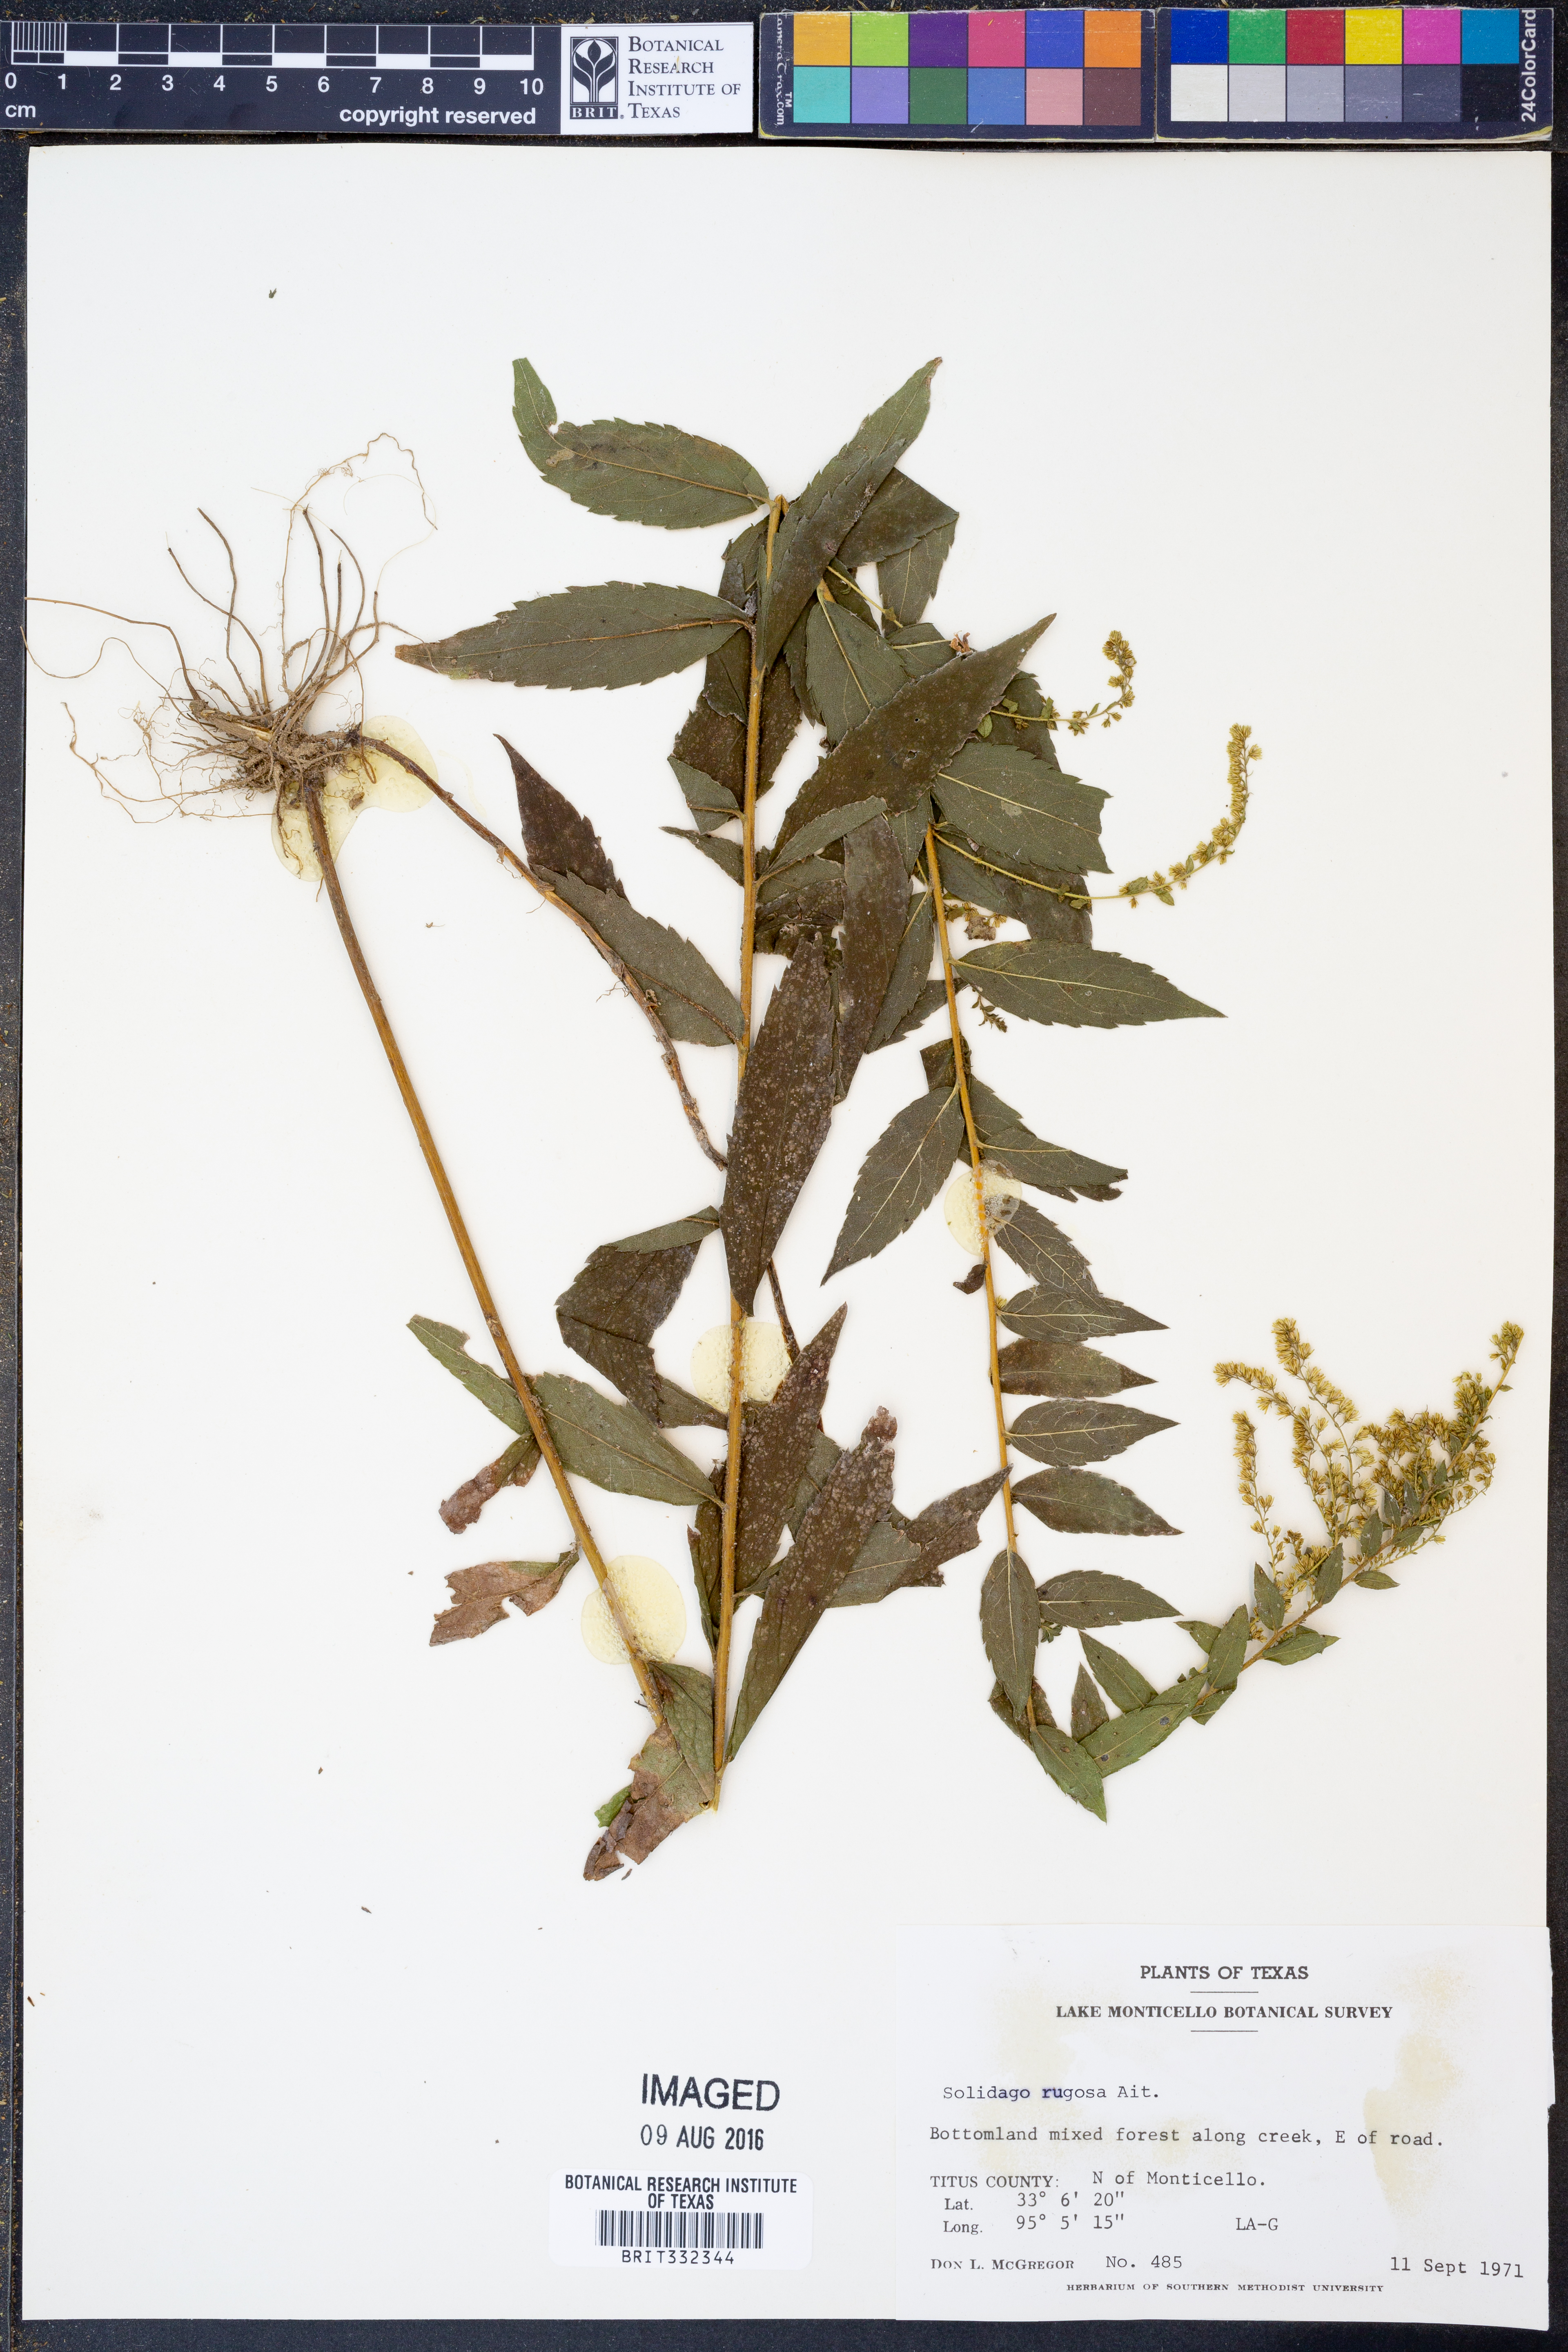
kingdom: Plantae
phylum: Tracheophyta
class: Magnoliopsida
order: Asterales
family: Asteraceae
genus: Solidago
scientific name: Solidago rugosa
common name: Rough-stemmed goldenrod
